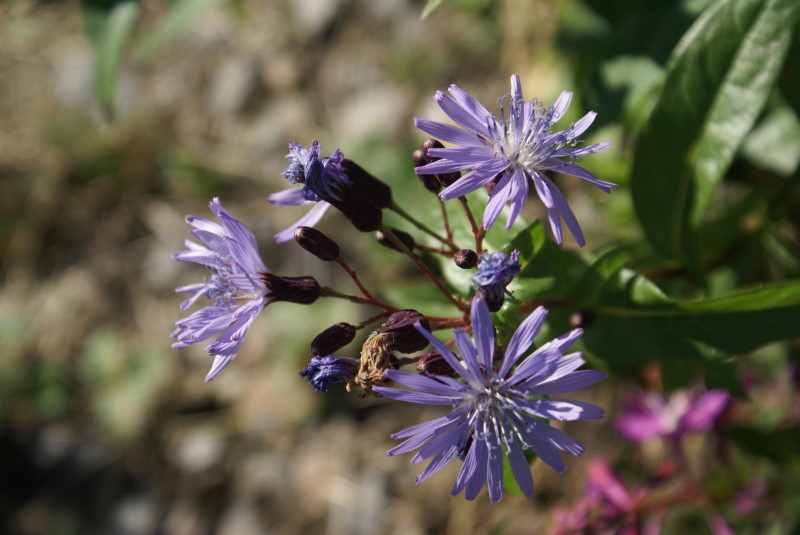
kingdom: Plantae
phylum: Tracheophyta
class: Magnoliopsida
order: Asterales
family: Asteraceae
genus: Lactuca
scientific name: Lactuca sibirica
